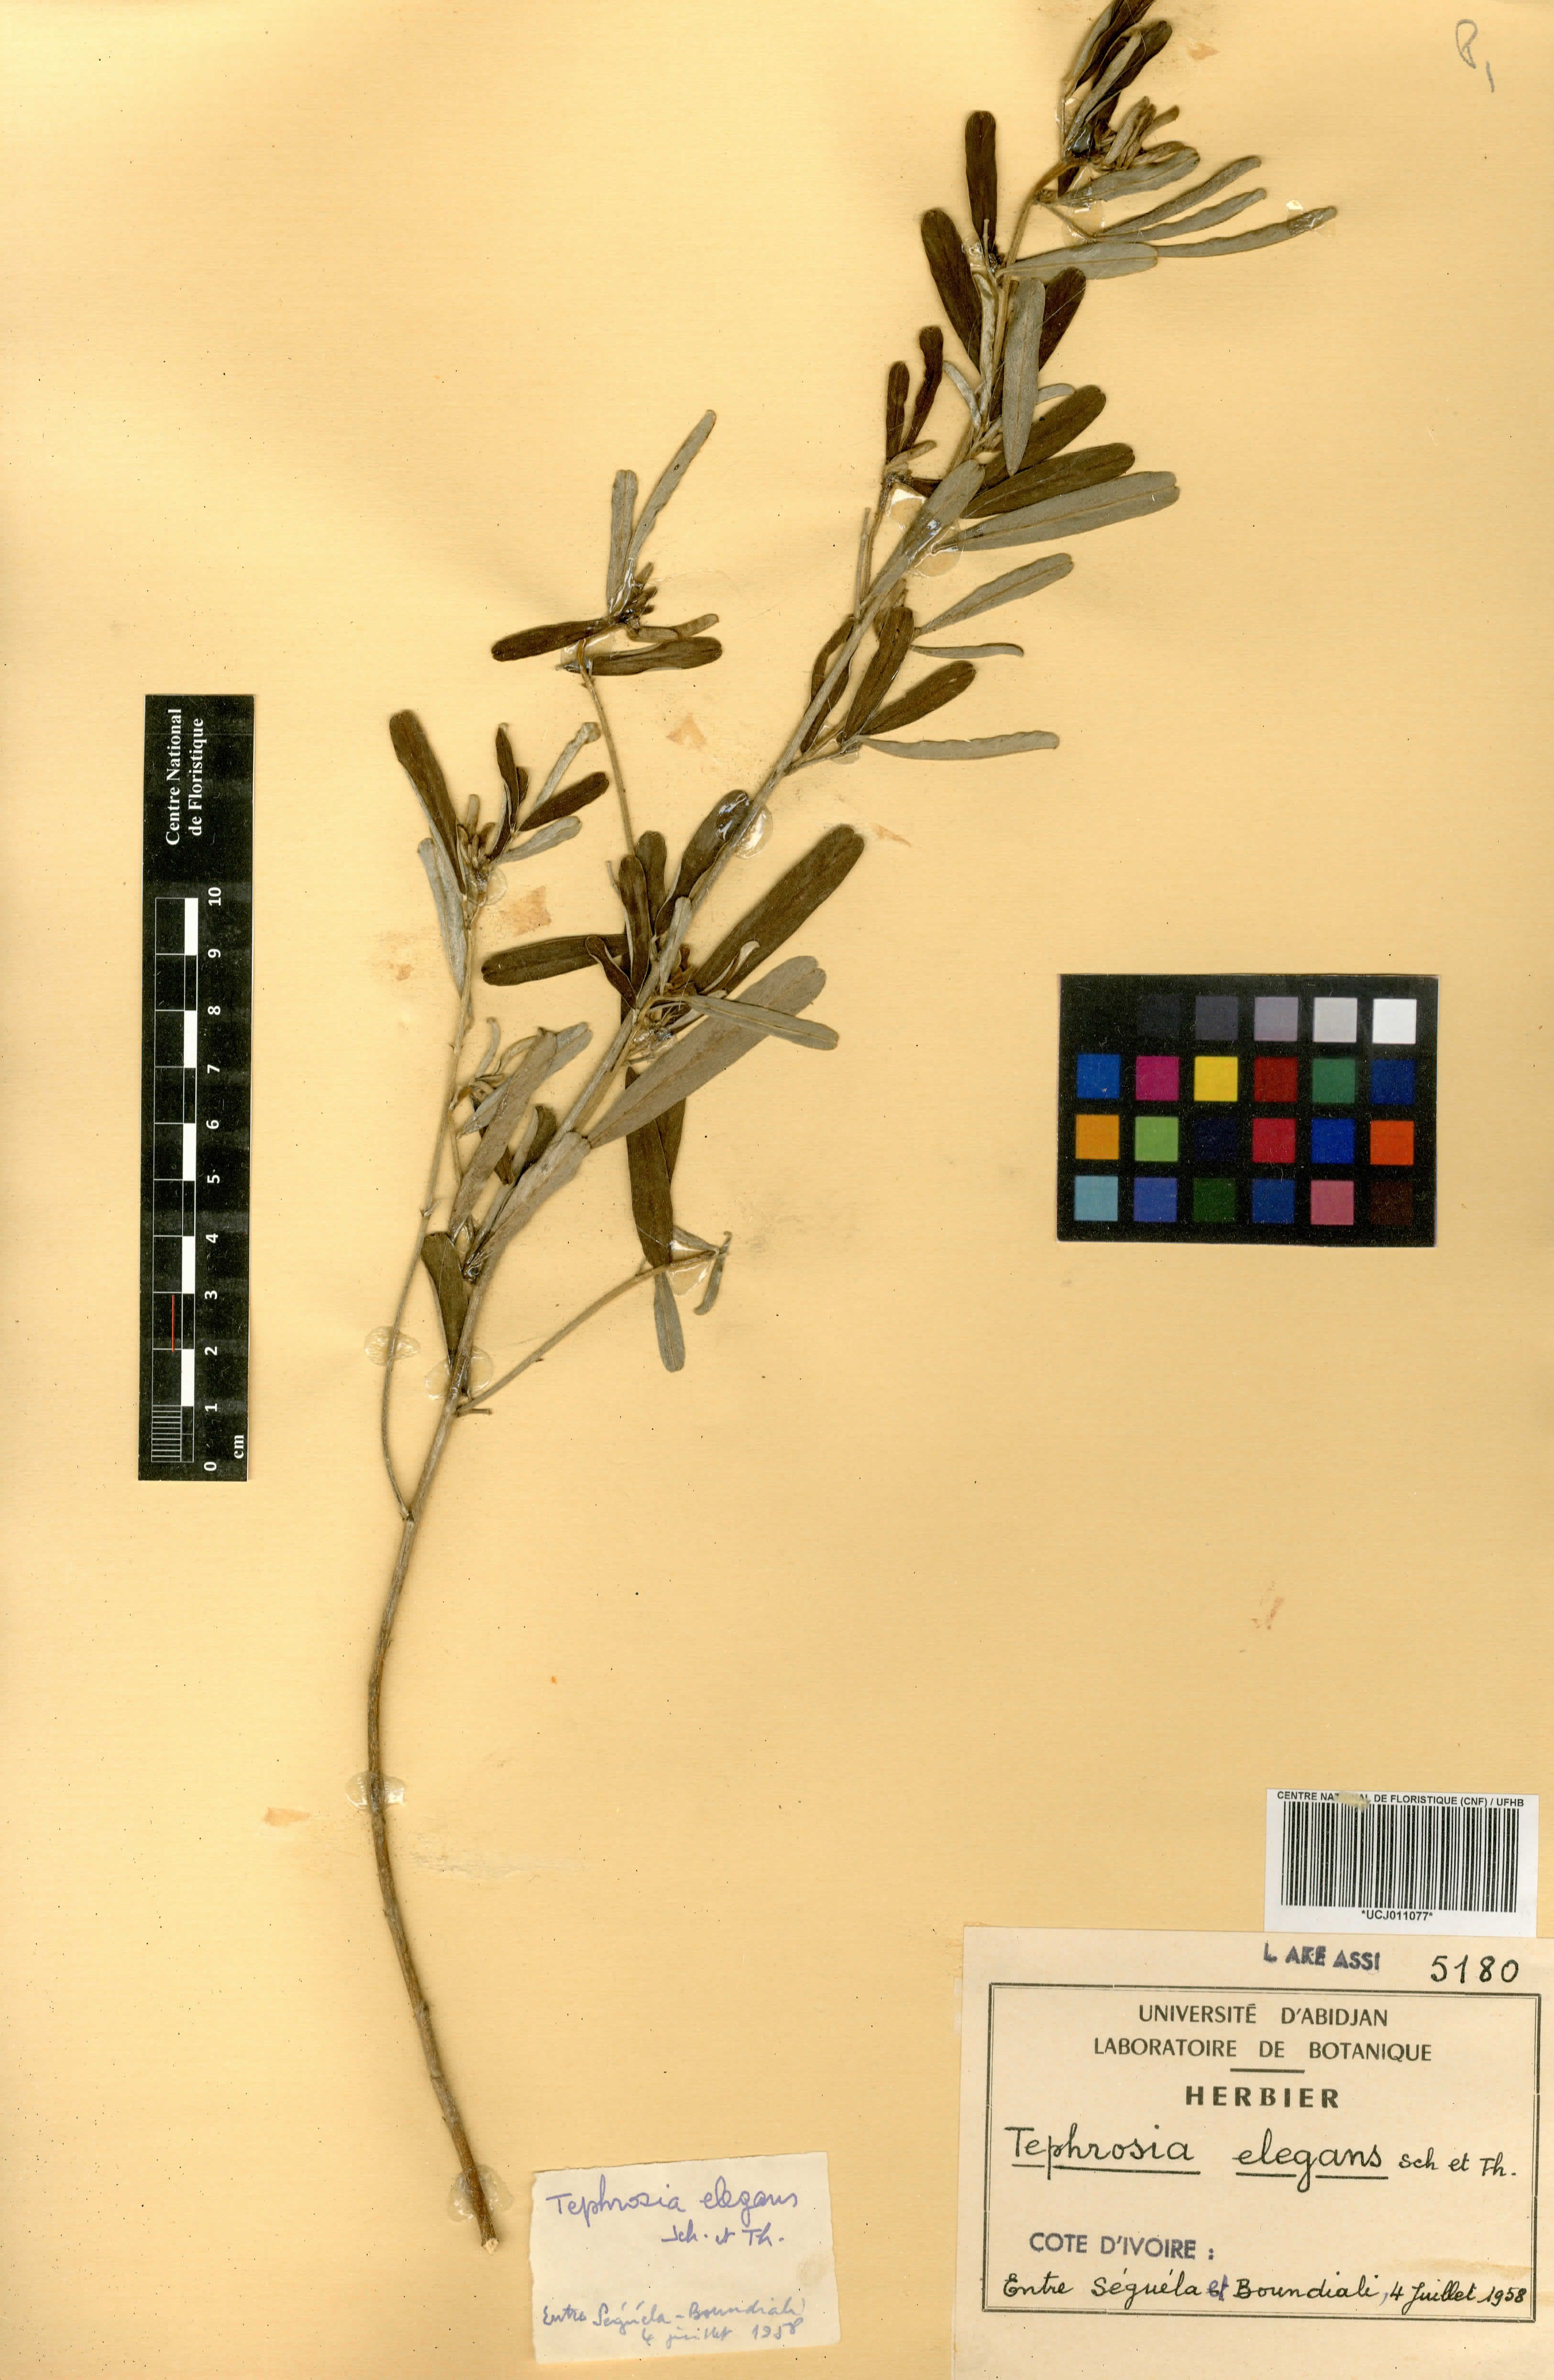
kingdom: Plantae
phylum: Tracheophyta
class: Magnoliopsida
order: Fabales
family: Fabaceae
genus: Tephrosia
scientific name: Tephrosia elegans
